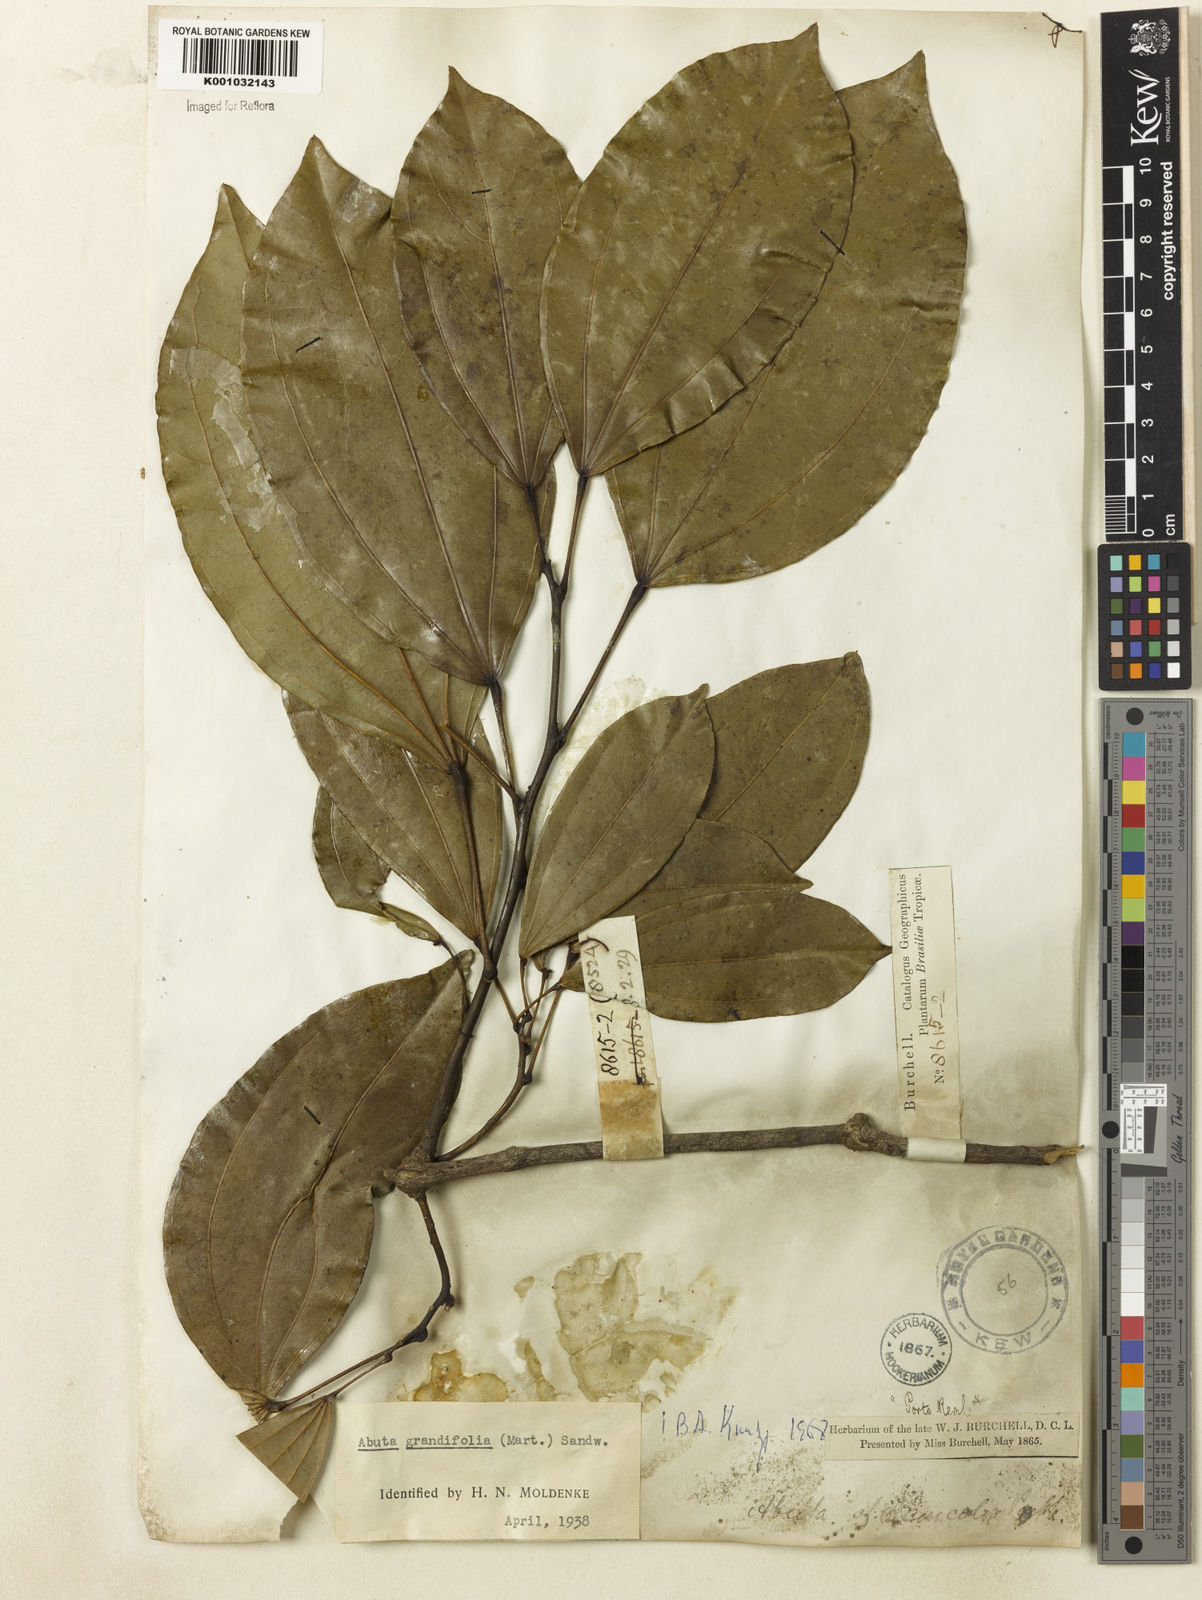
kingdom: Plantae
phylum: Tracheophyta
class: Magnoliopsida
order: Ranunculales
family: Menispermaceae
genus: Abuta
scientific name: Abuta grandifolia
